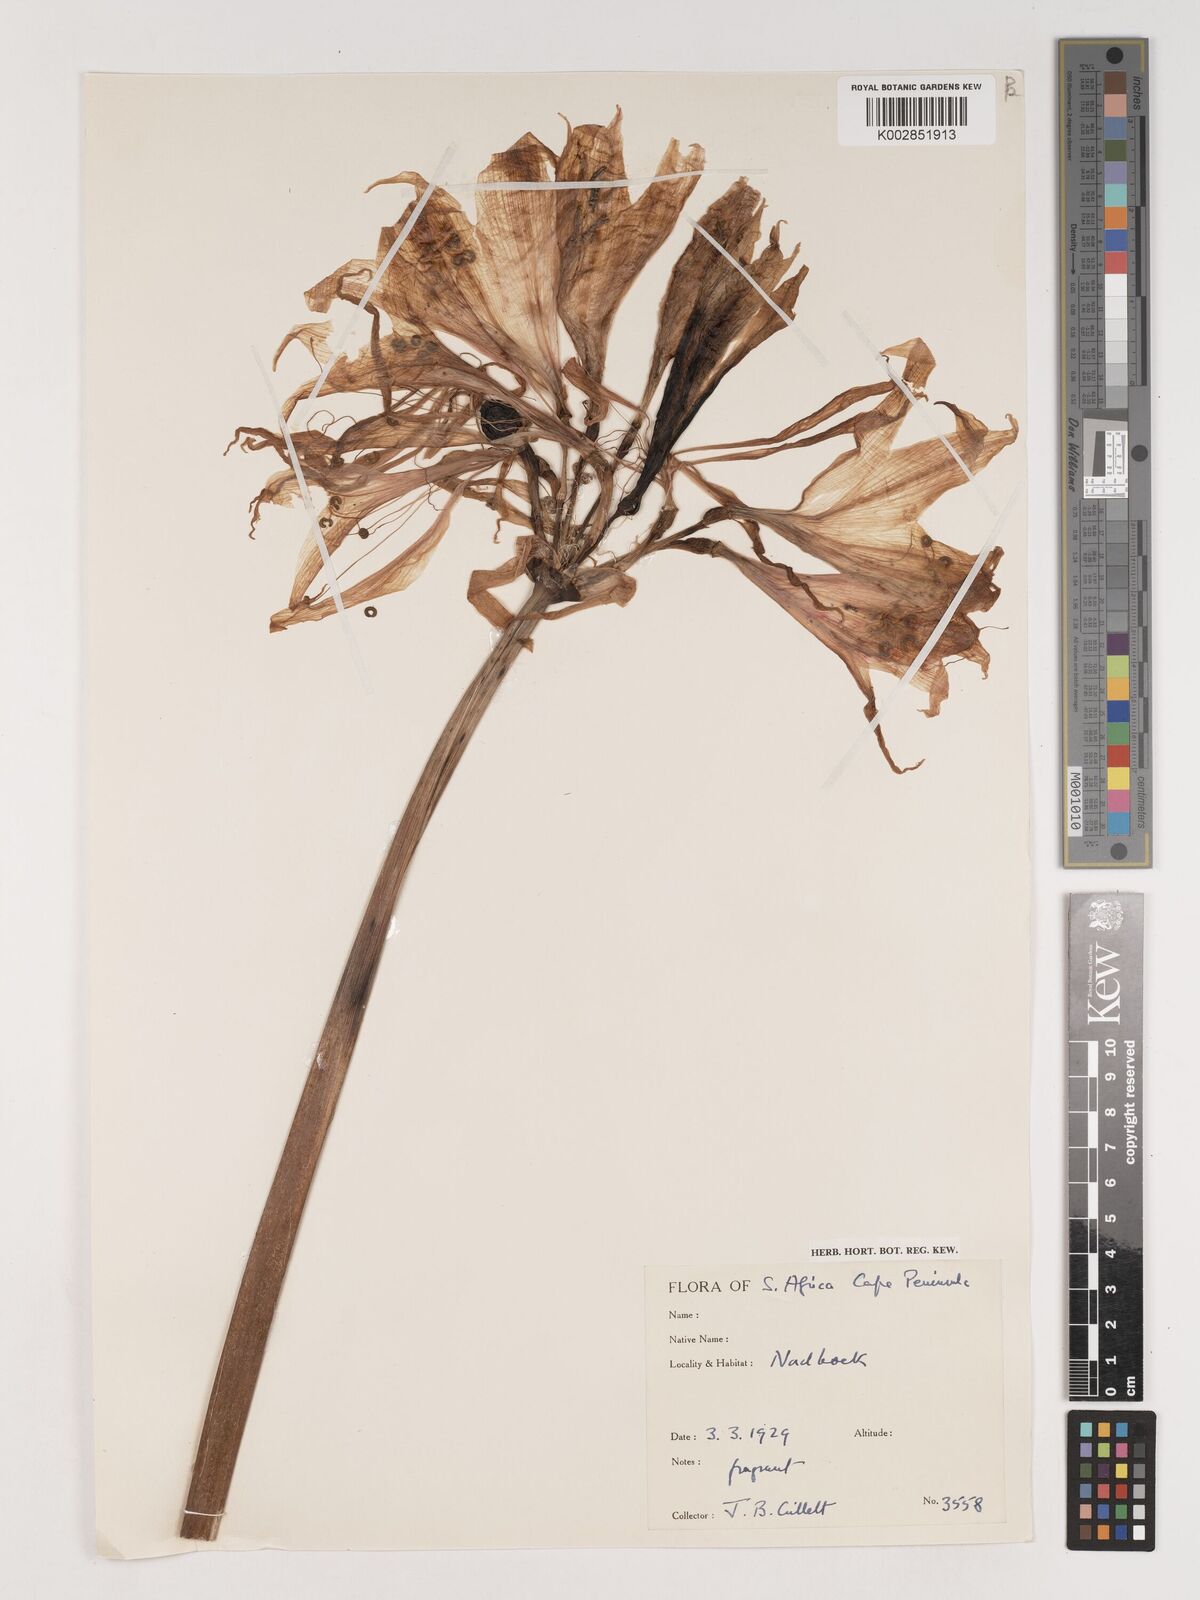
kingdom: Plantae
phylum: Tracheophyta
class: Liliopsida
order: Asparagales
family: Amaryllidaceae
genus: Crinum
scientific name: Crinum
